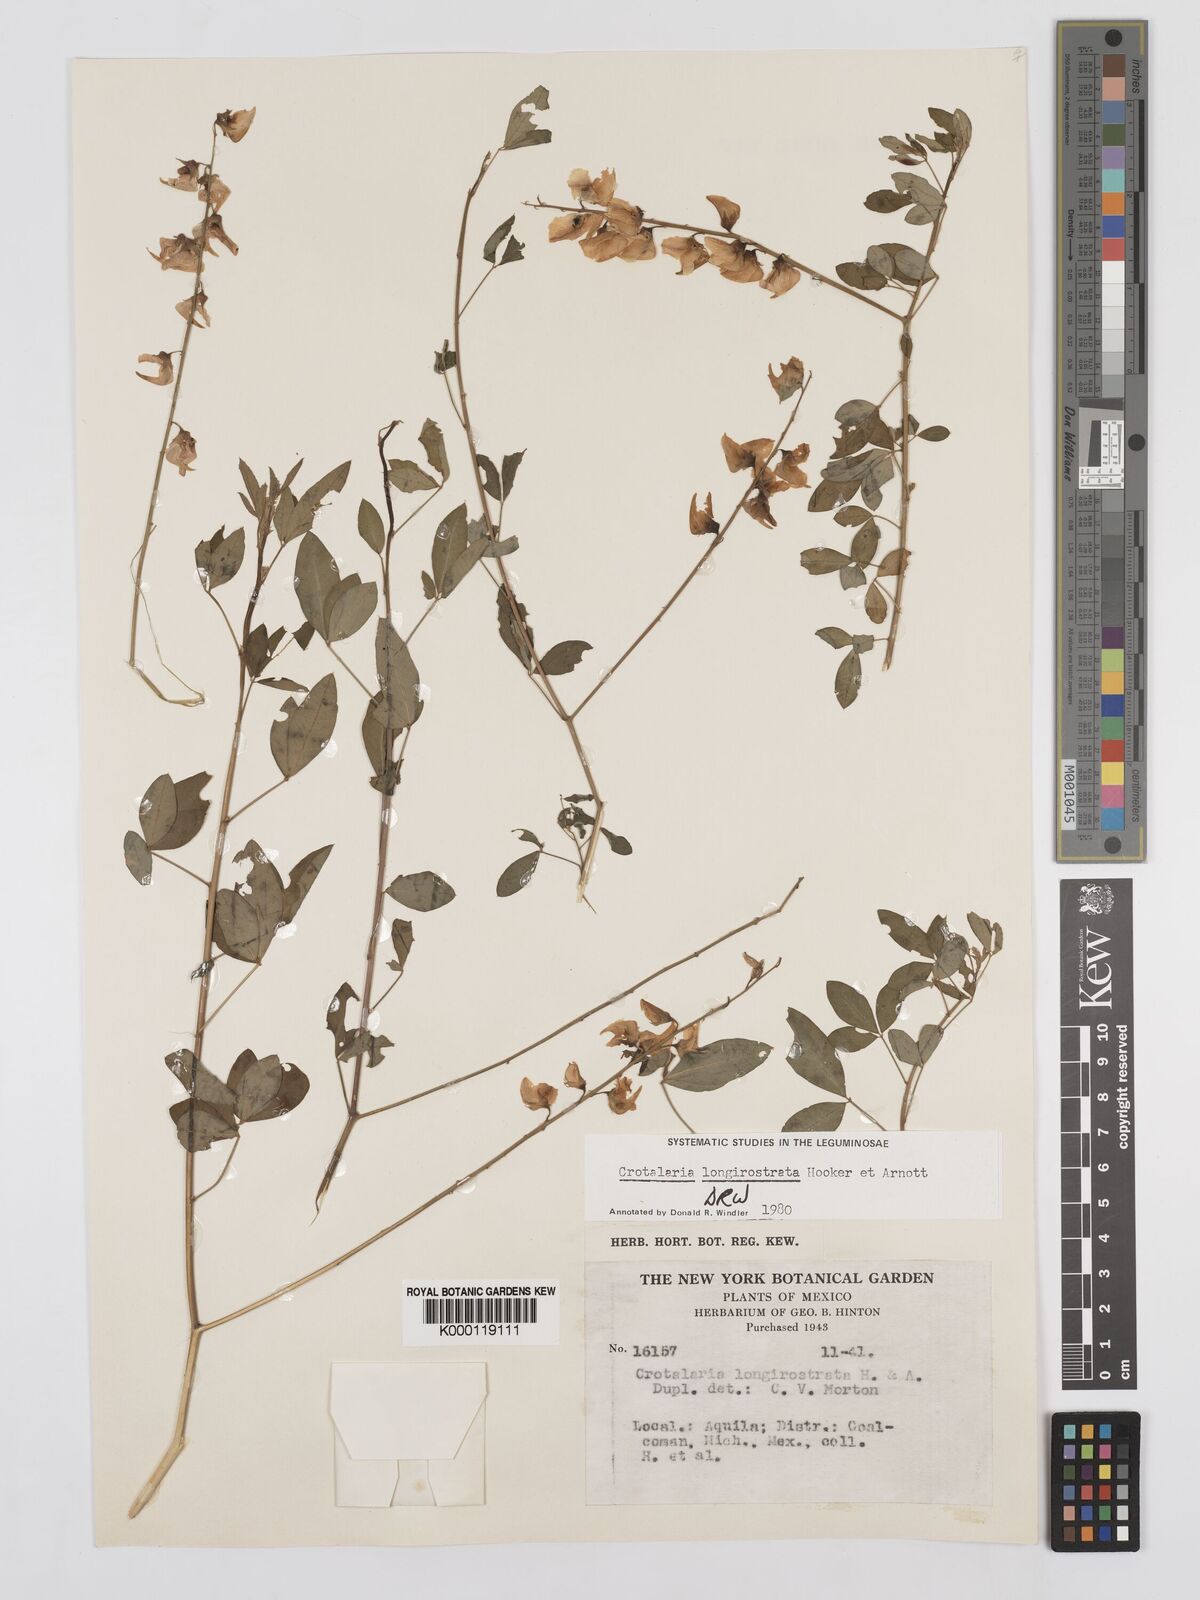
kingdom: Plantae
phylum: Tracheophyta
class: Magnoliopsida
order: Fabales
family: Fabaceae
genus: Crotalaria
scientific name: Crotalaria longirostrata
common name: Longbeak rattlebox
